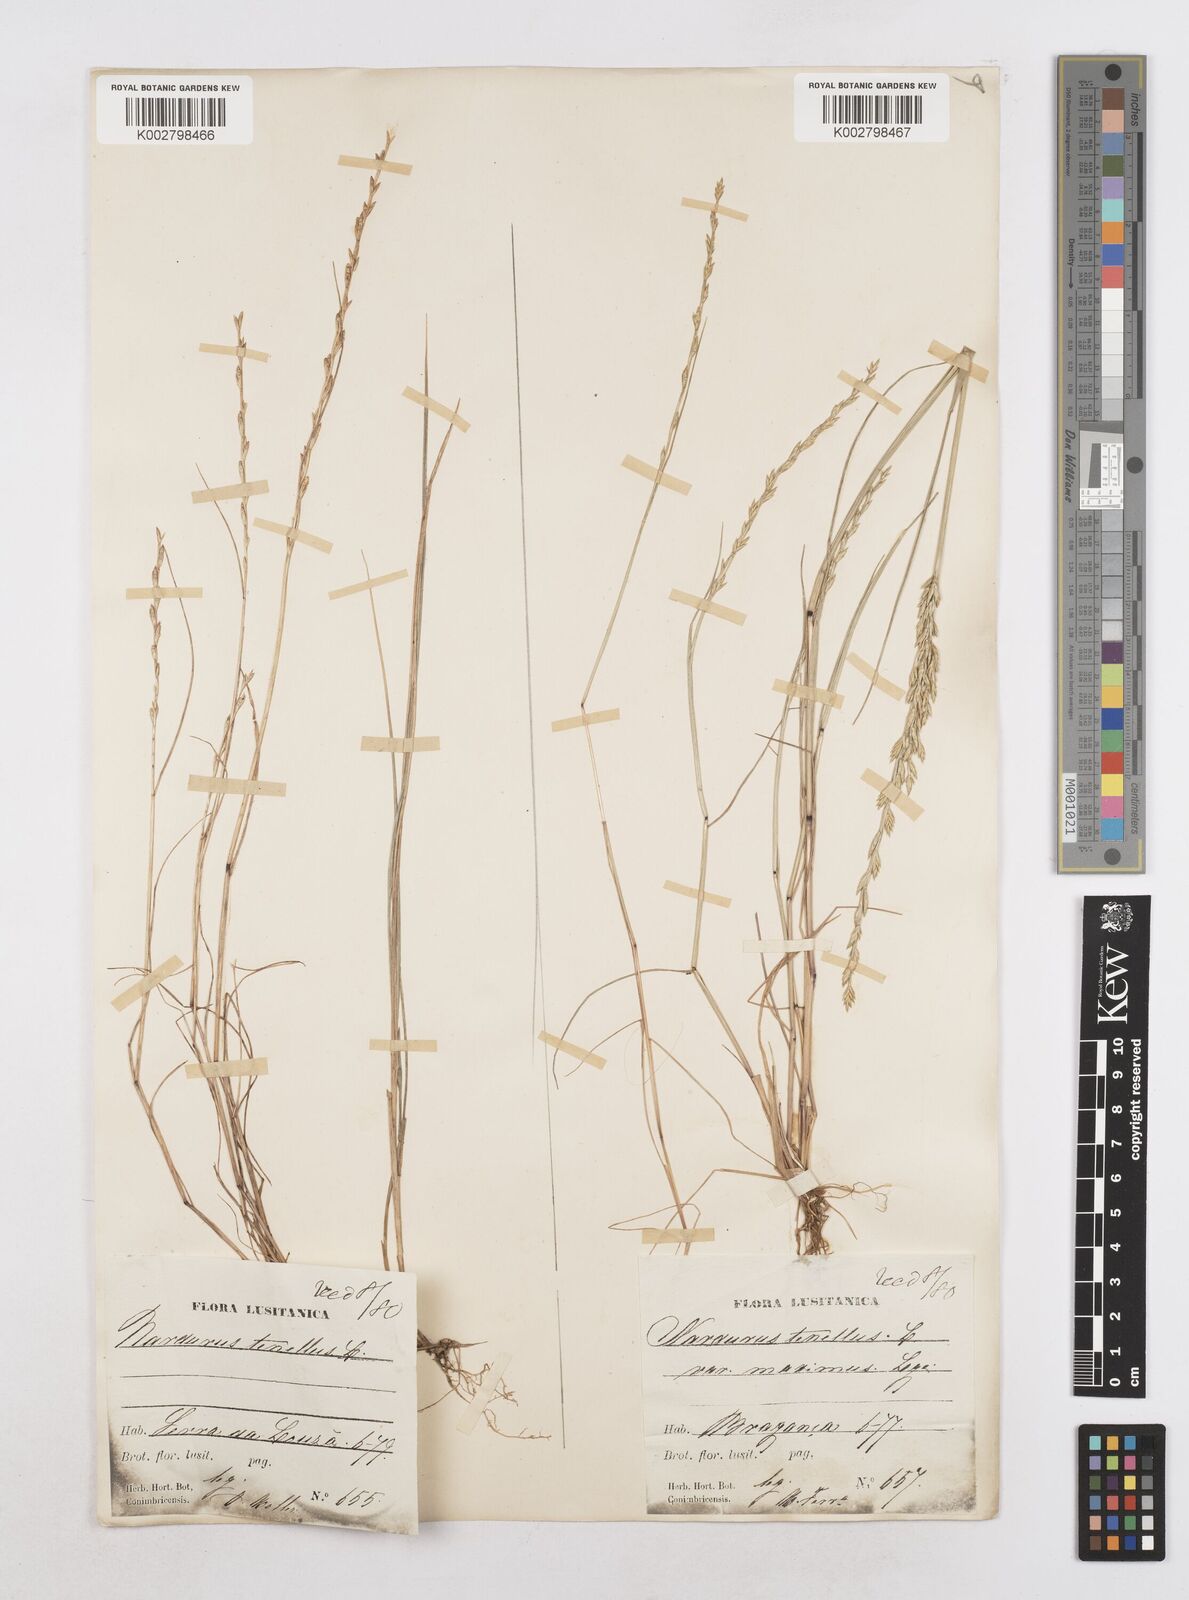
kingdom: Plantae
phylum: Tracheophyta
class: Liliopsida
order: Poales
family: Poaceae
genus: Festuca
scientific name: Festuca lachenalii
